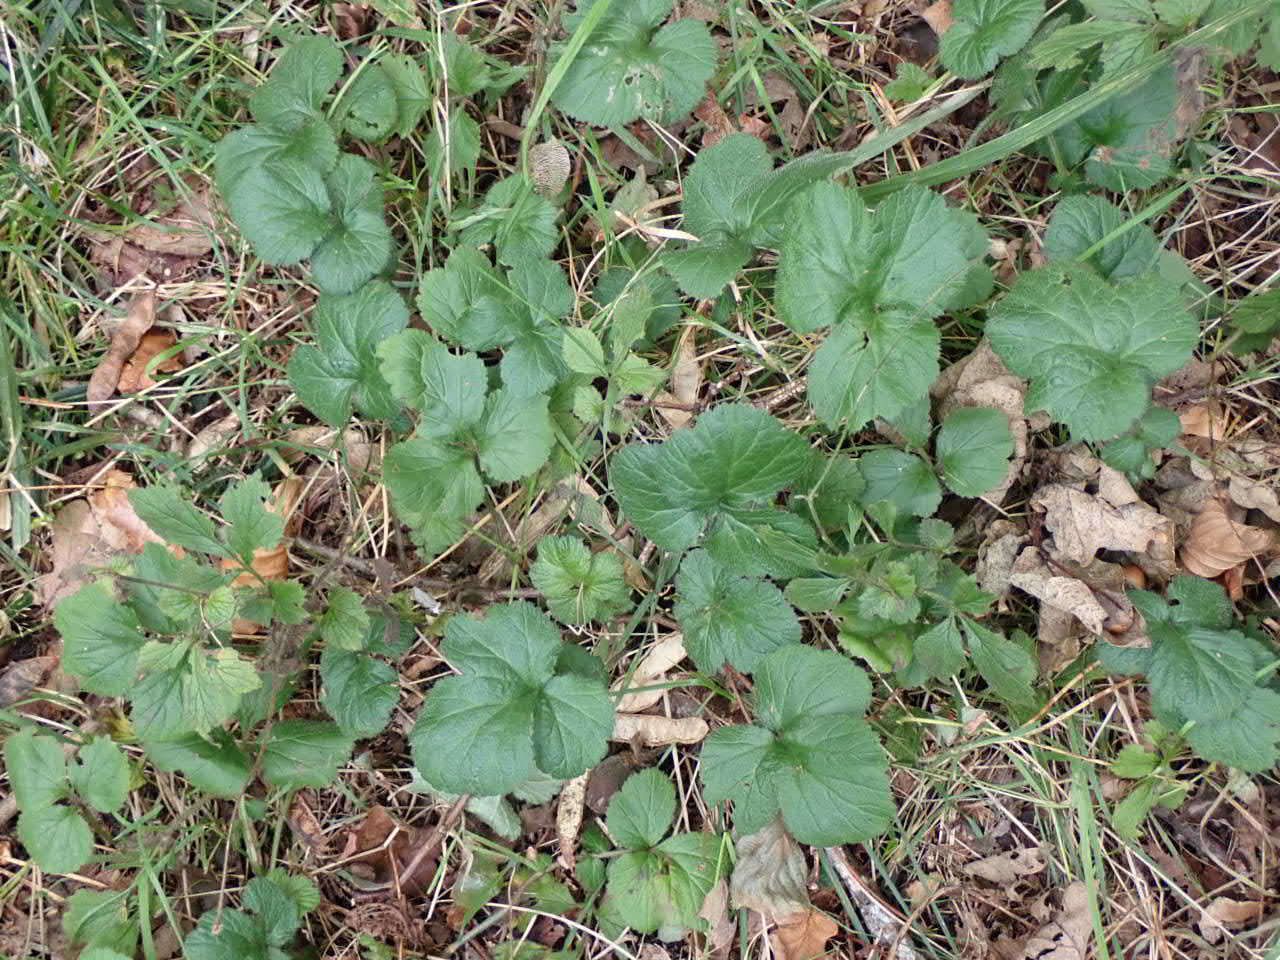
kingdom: Plantae
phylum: Tracheophyta
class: Magnoliopsida
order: Rosales
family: Rosaceae
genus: Geum
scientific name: Geum urbanum
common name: Feber-nellikerod
